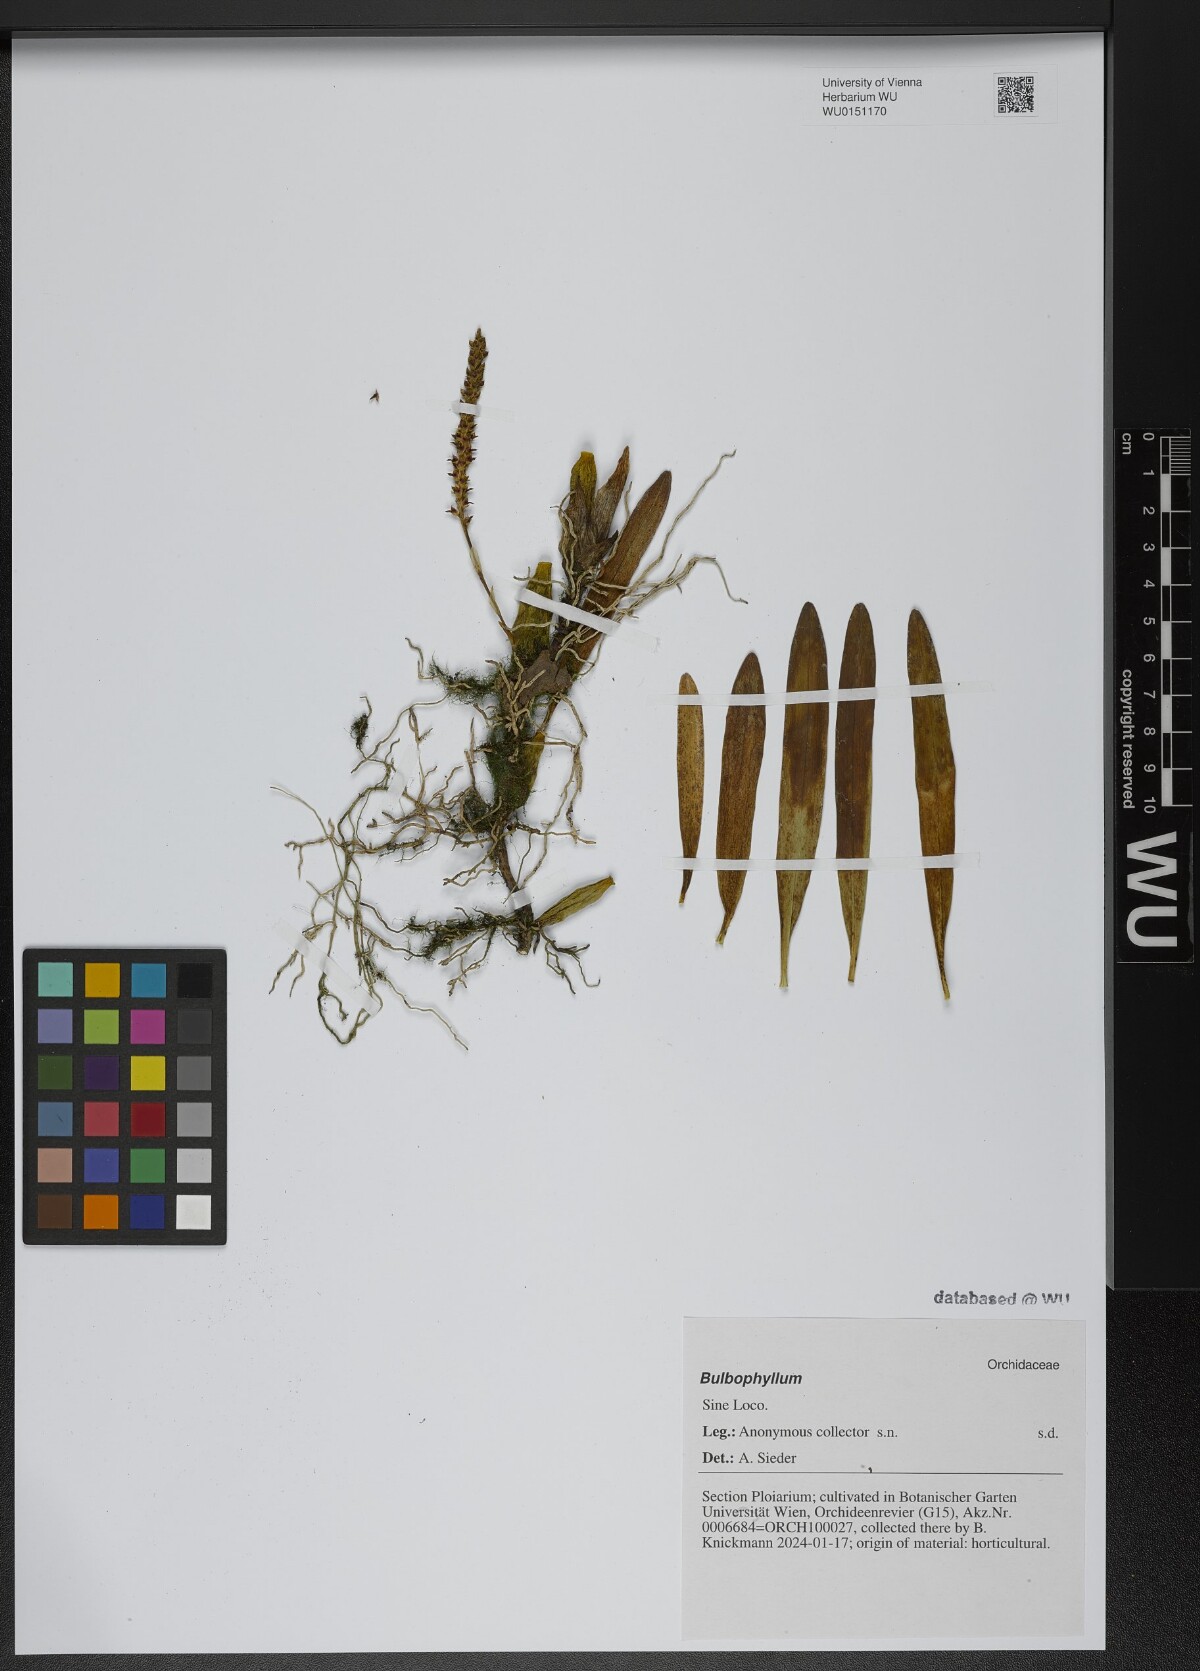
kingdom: Plantae
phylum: Tracheophyta
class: Liliopsida
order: Asparagales
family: Orchidaceae
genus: Bulbophyllum
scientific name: Bulbophyllum
